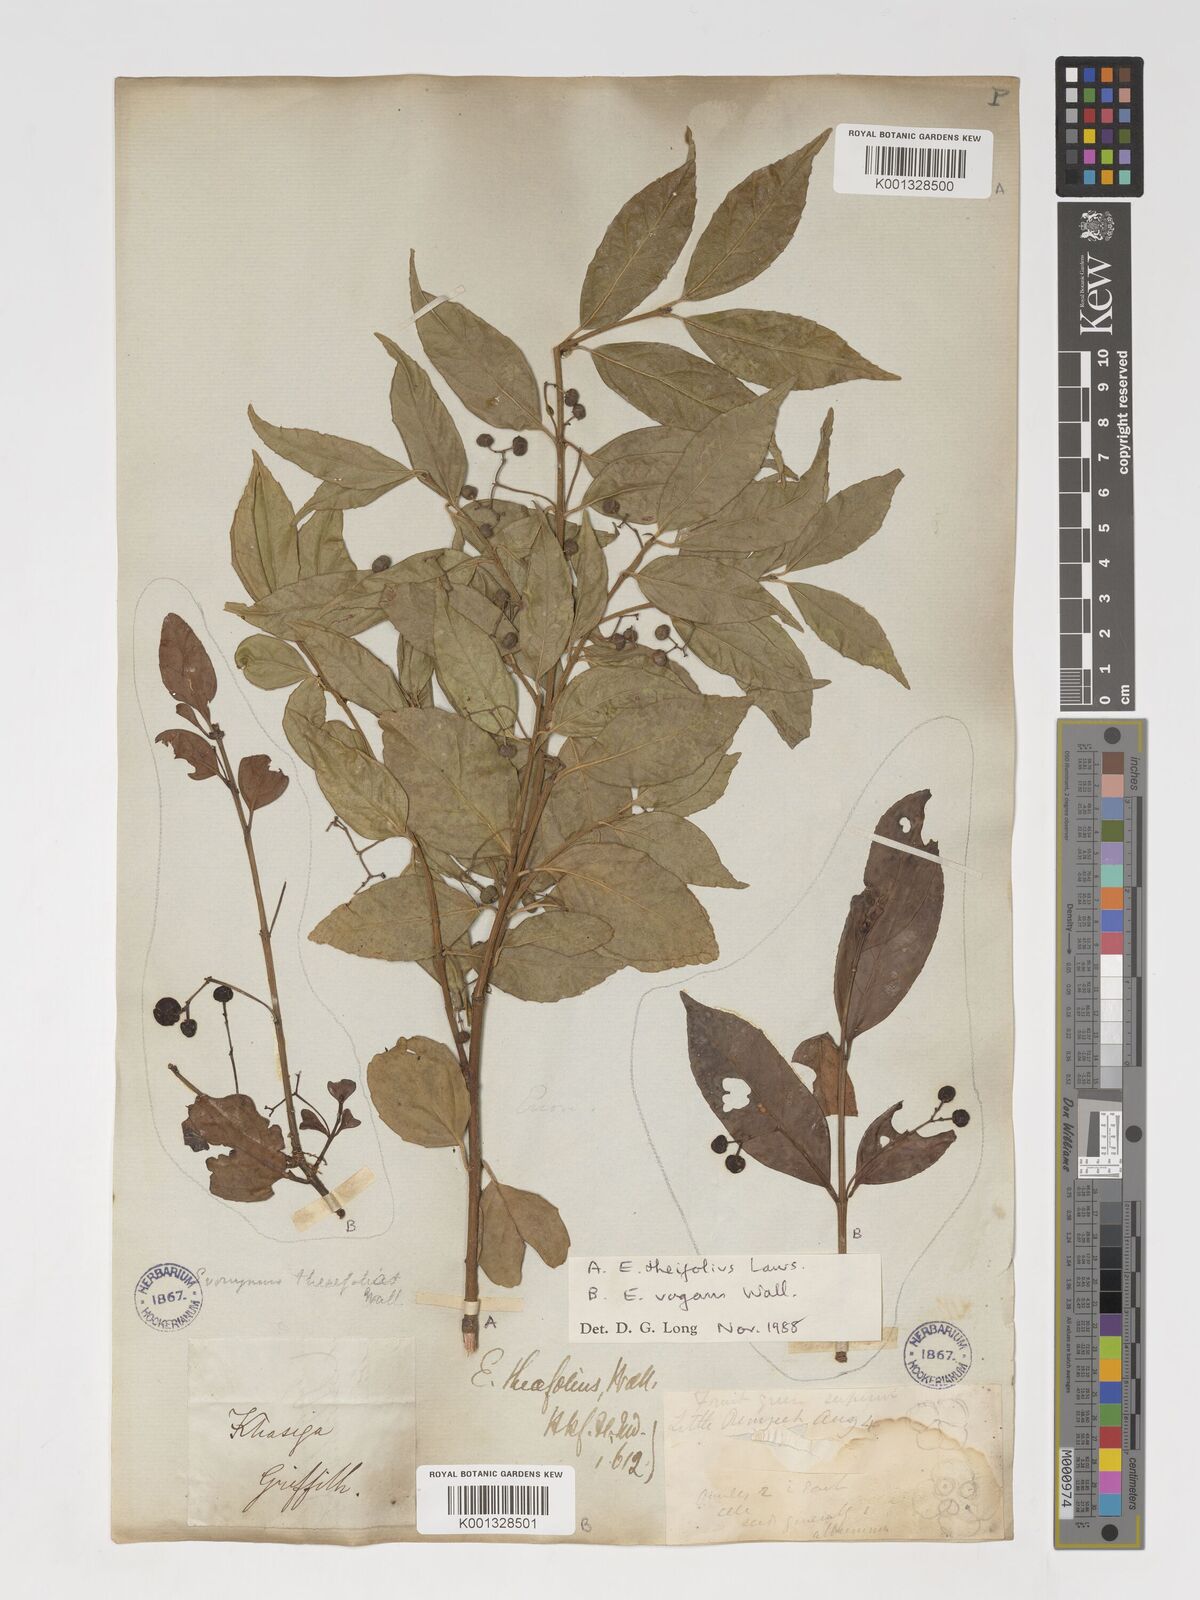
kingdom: Plantae
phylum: Tracheophyta
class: Magnoliopsida
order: Celastrales
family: Celastraceae
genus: Euonymus
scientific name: Euonymus vagans
